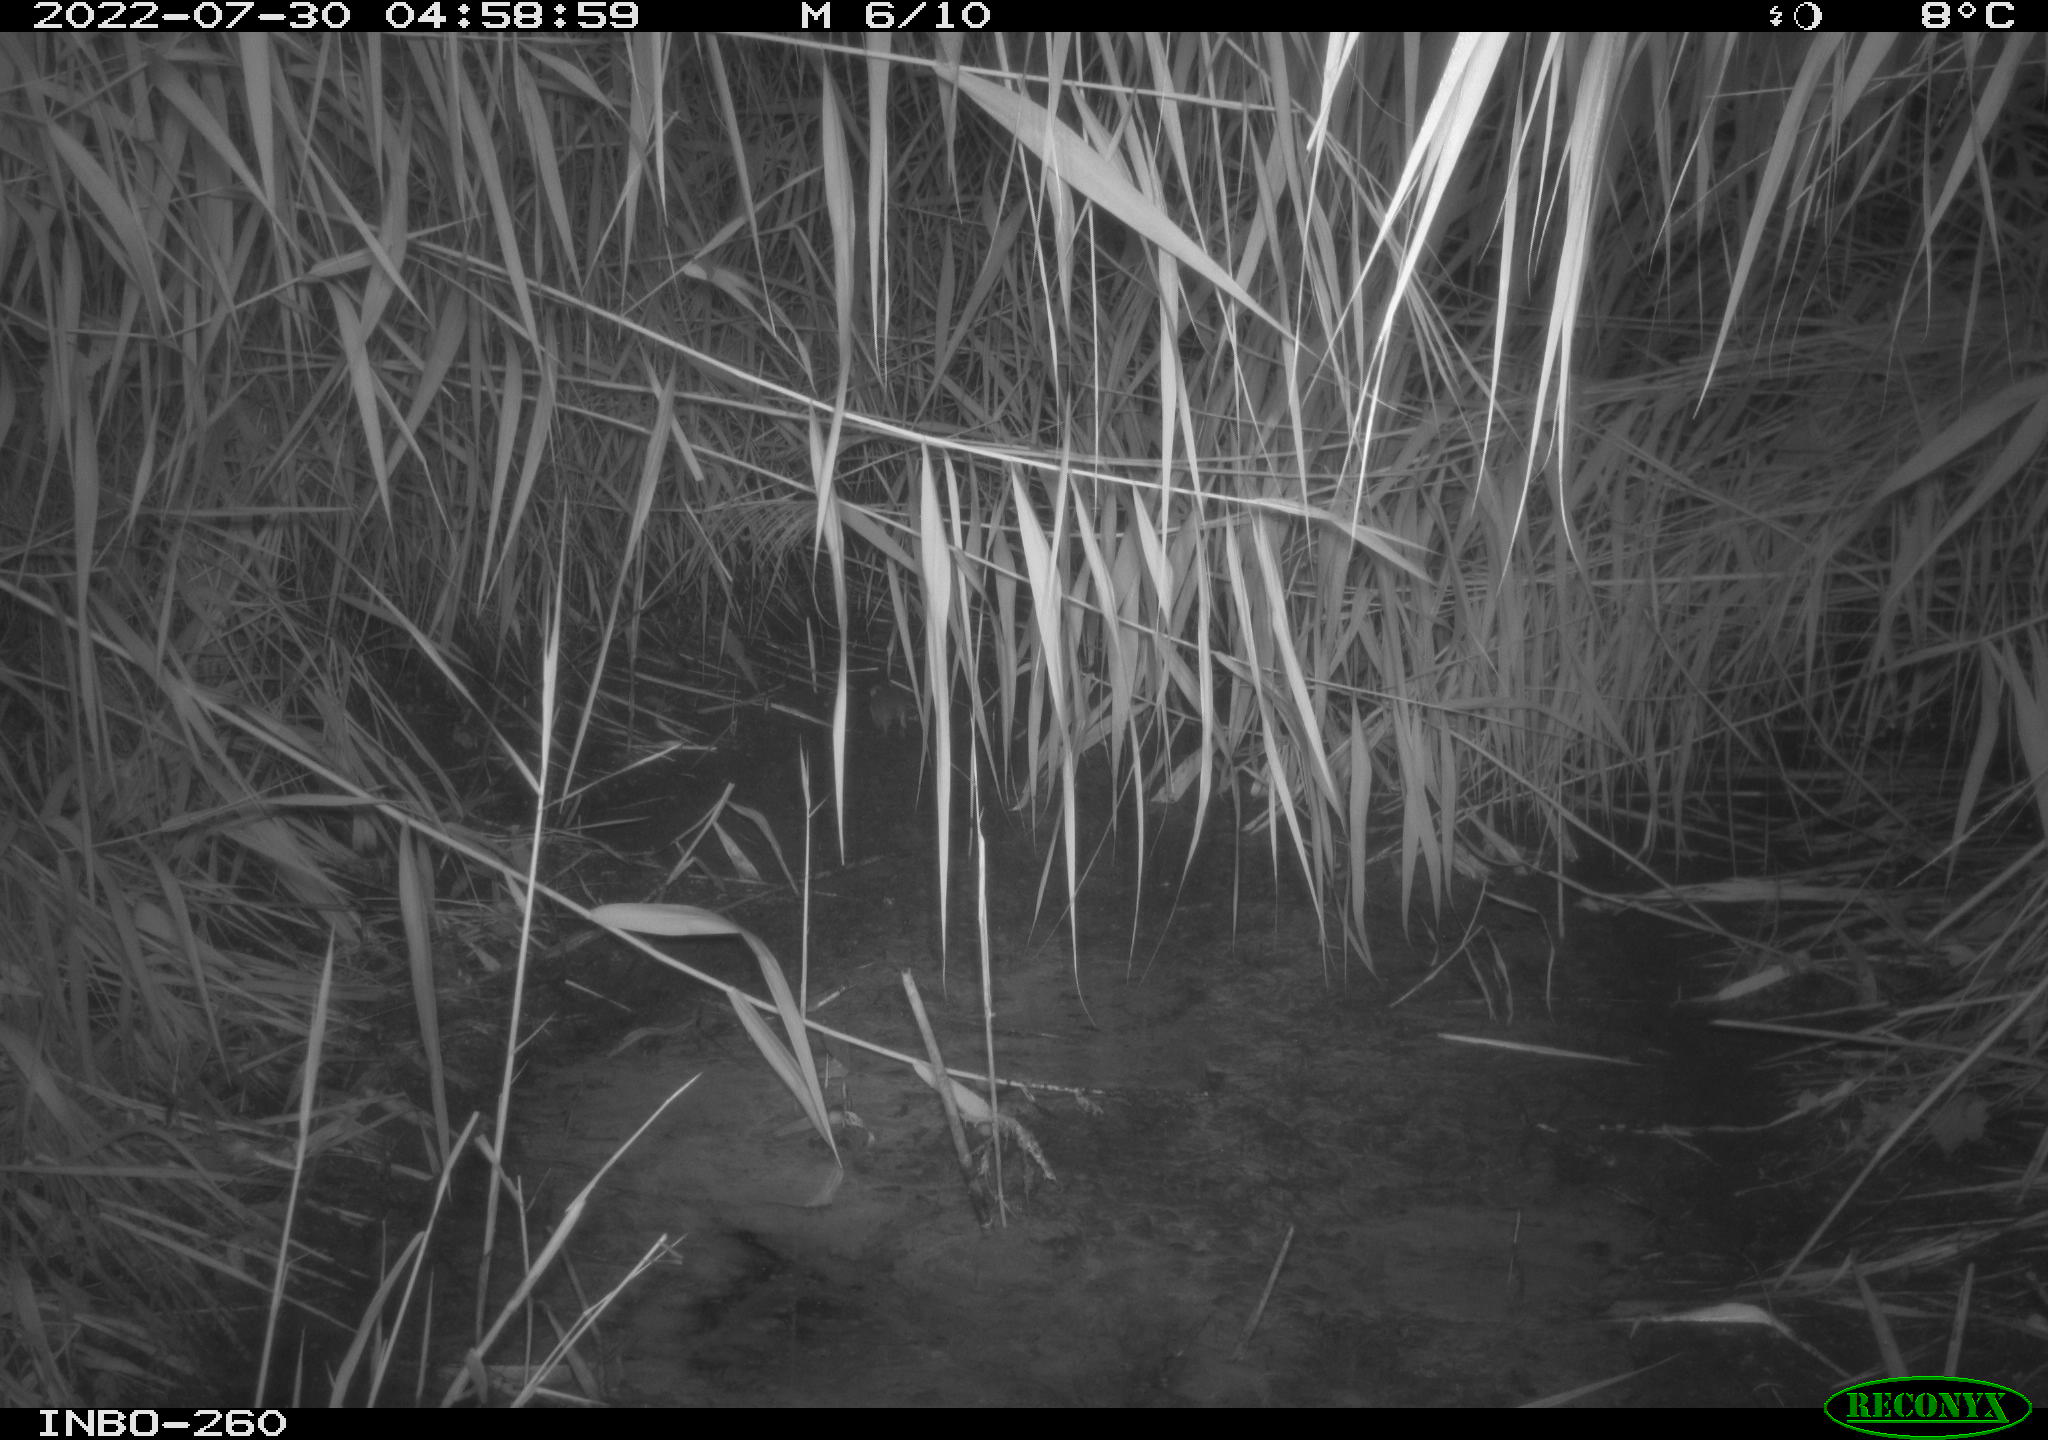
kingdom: Animalia
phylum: Chordata
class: Mammalia
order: Rodentia
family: Muridae
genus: Rattus
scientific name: Rattus norvegicus
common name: Brown rat
